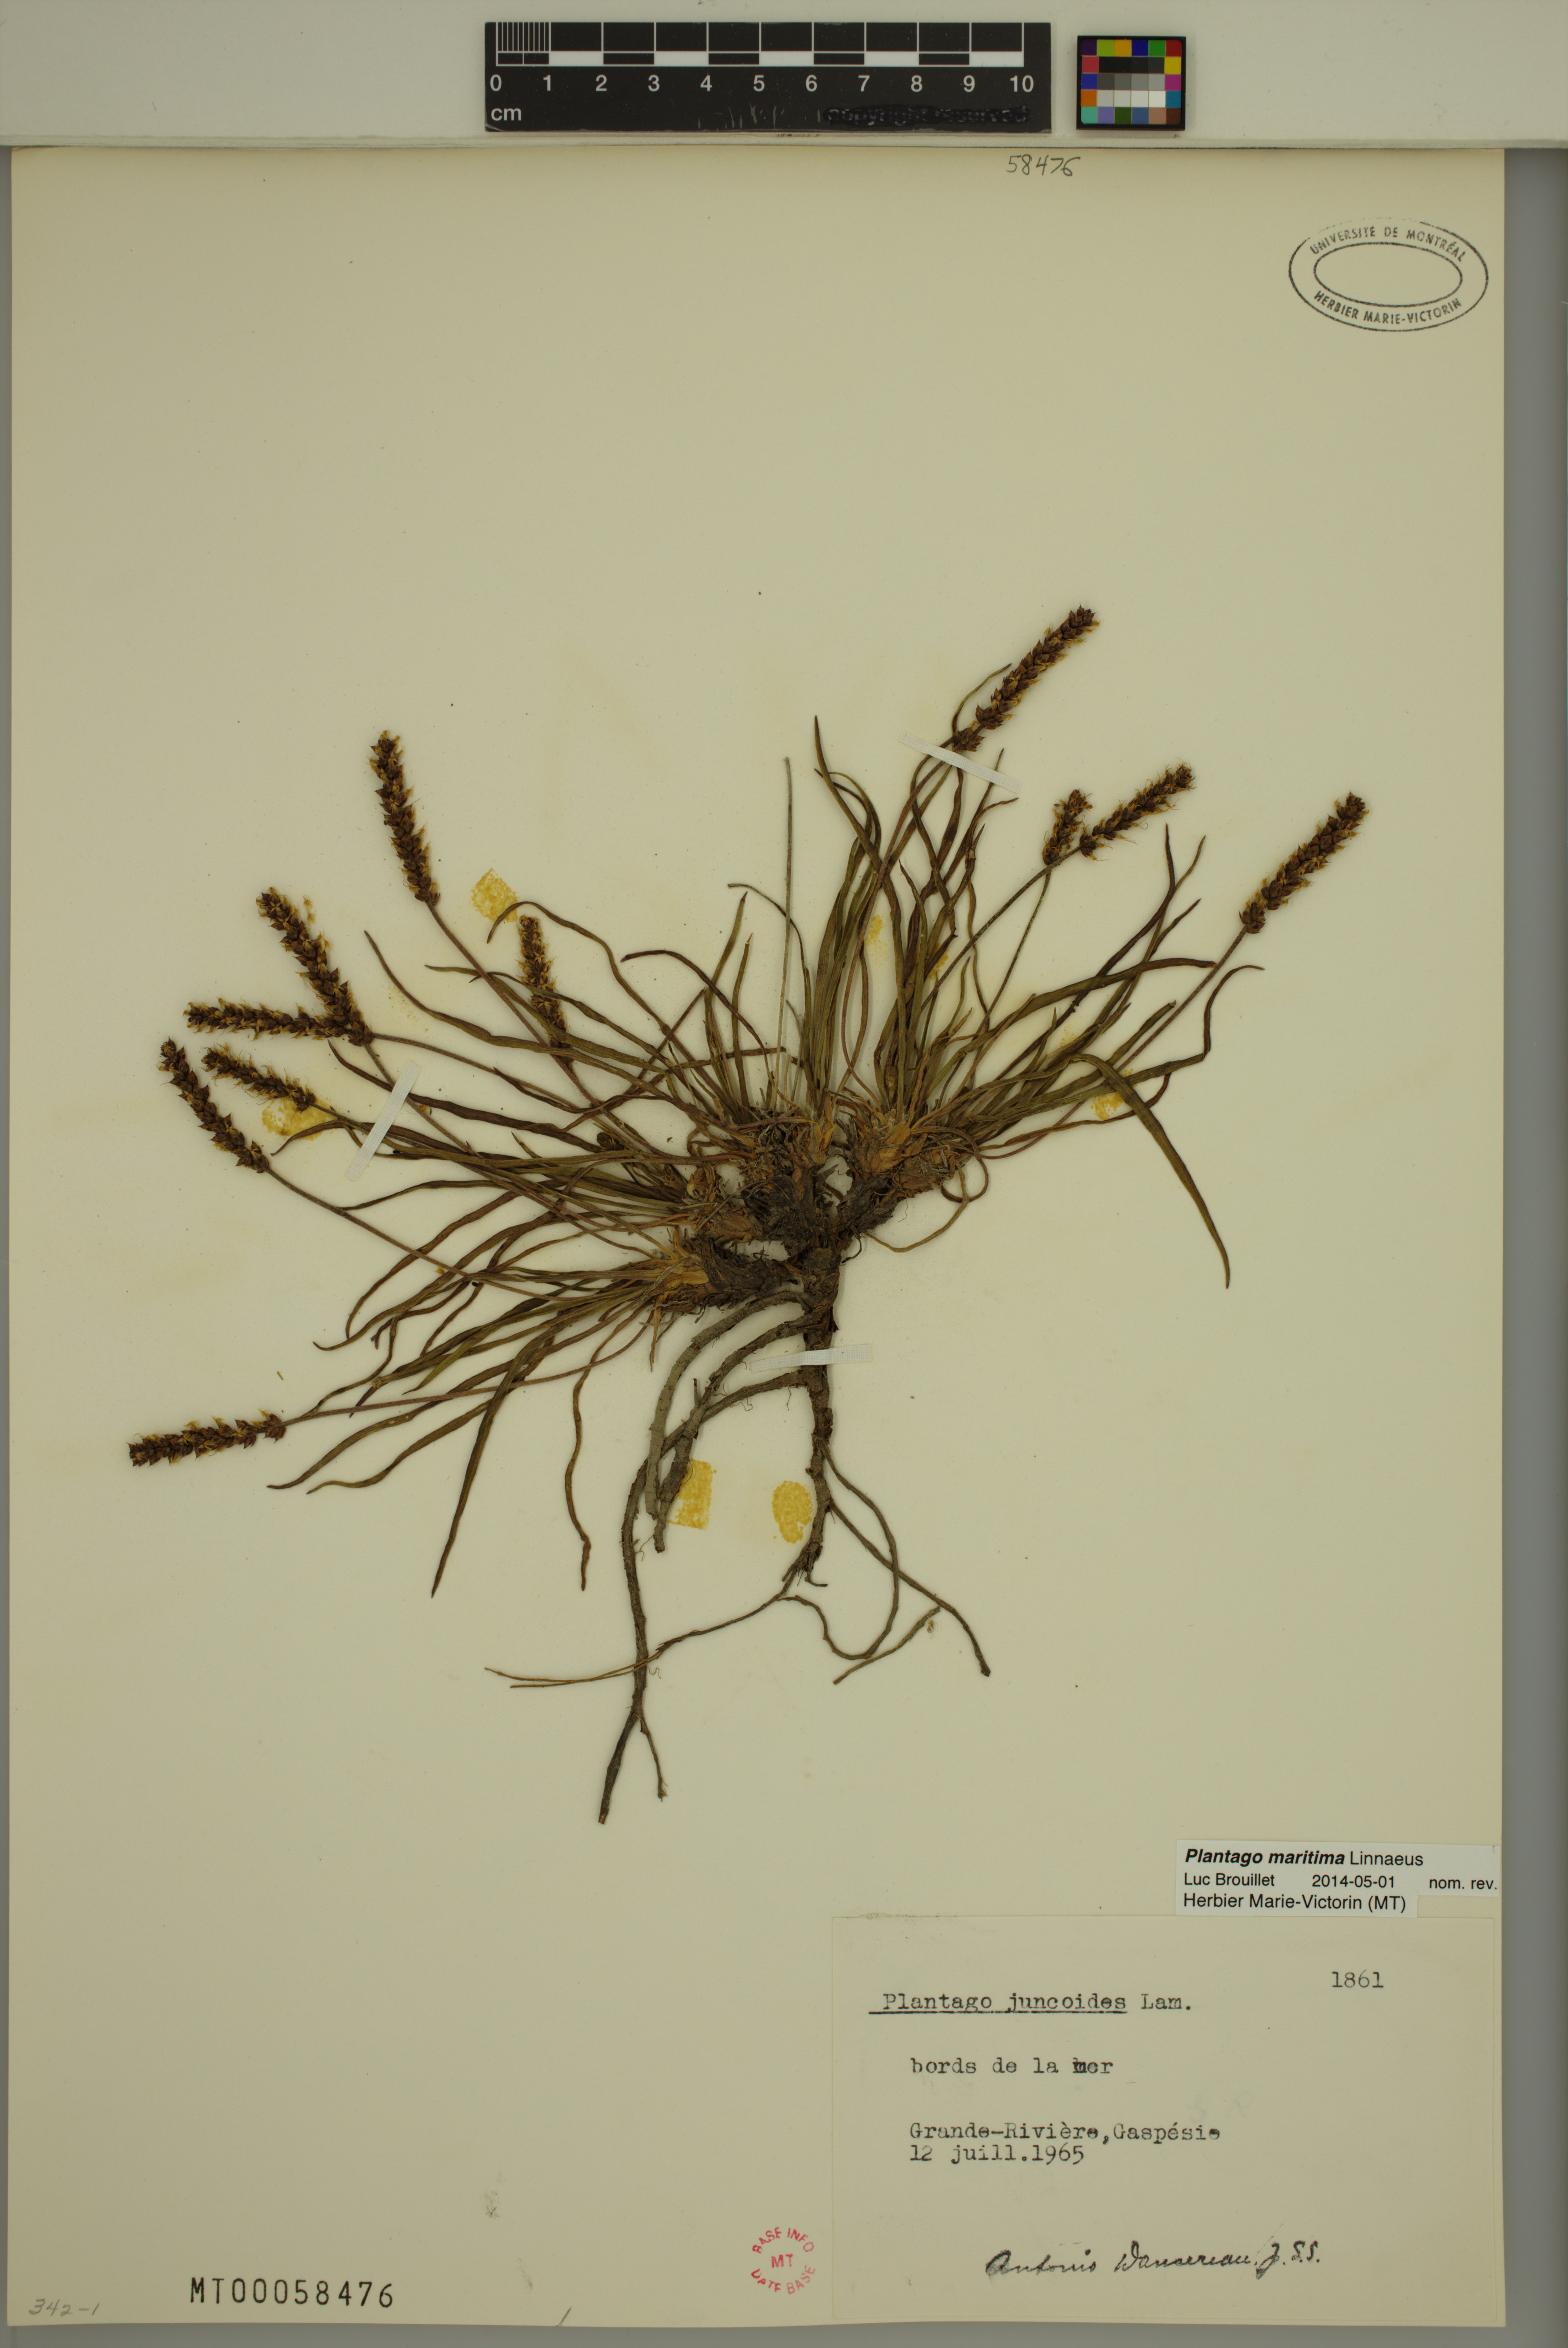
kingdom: Plantae
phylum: Tracheophyta
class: Magnoliopsida
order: Lamiales
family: Plantaginaceae
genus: Plantago
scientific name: Plantago maritima
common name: Sea plantain
